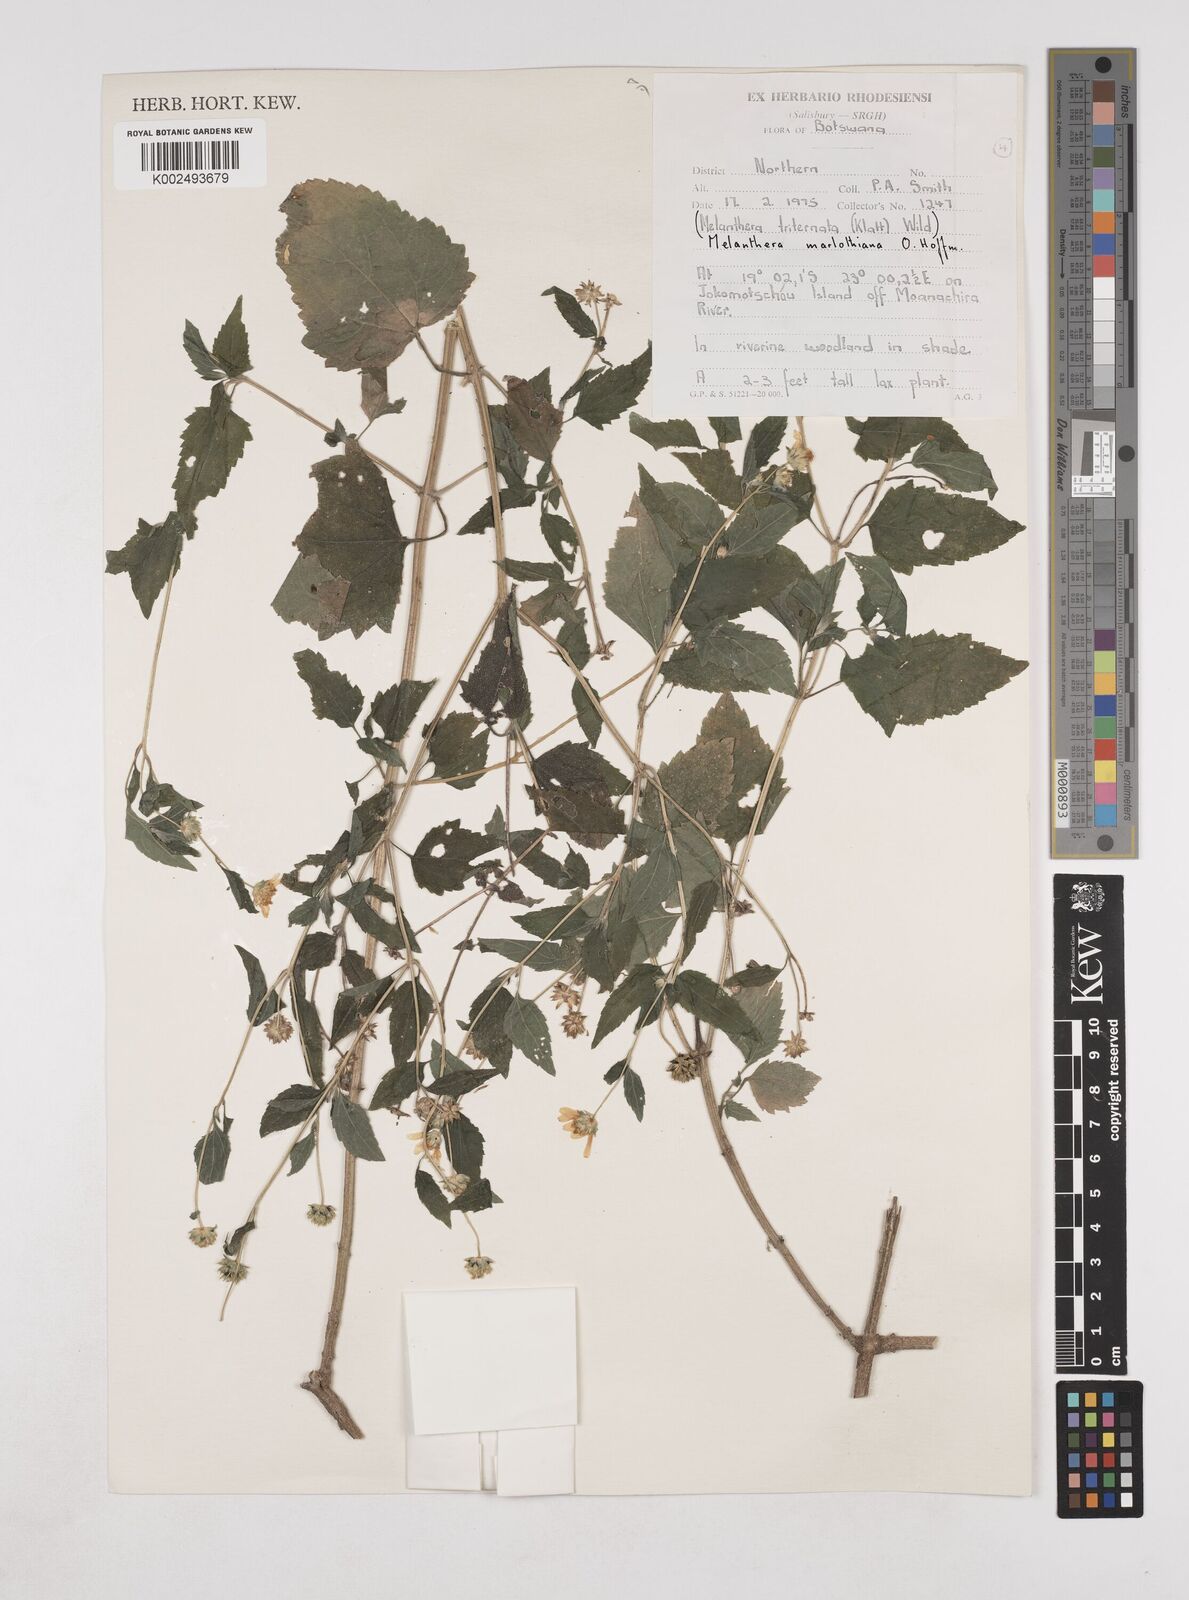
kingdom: Plantae
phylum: Tracheophyta
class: Magnoliopsida
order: Asterales
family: Asteraceae
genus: Lipotriche
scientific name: Lipotriche marlothiana
